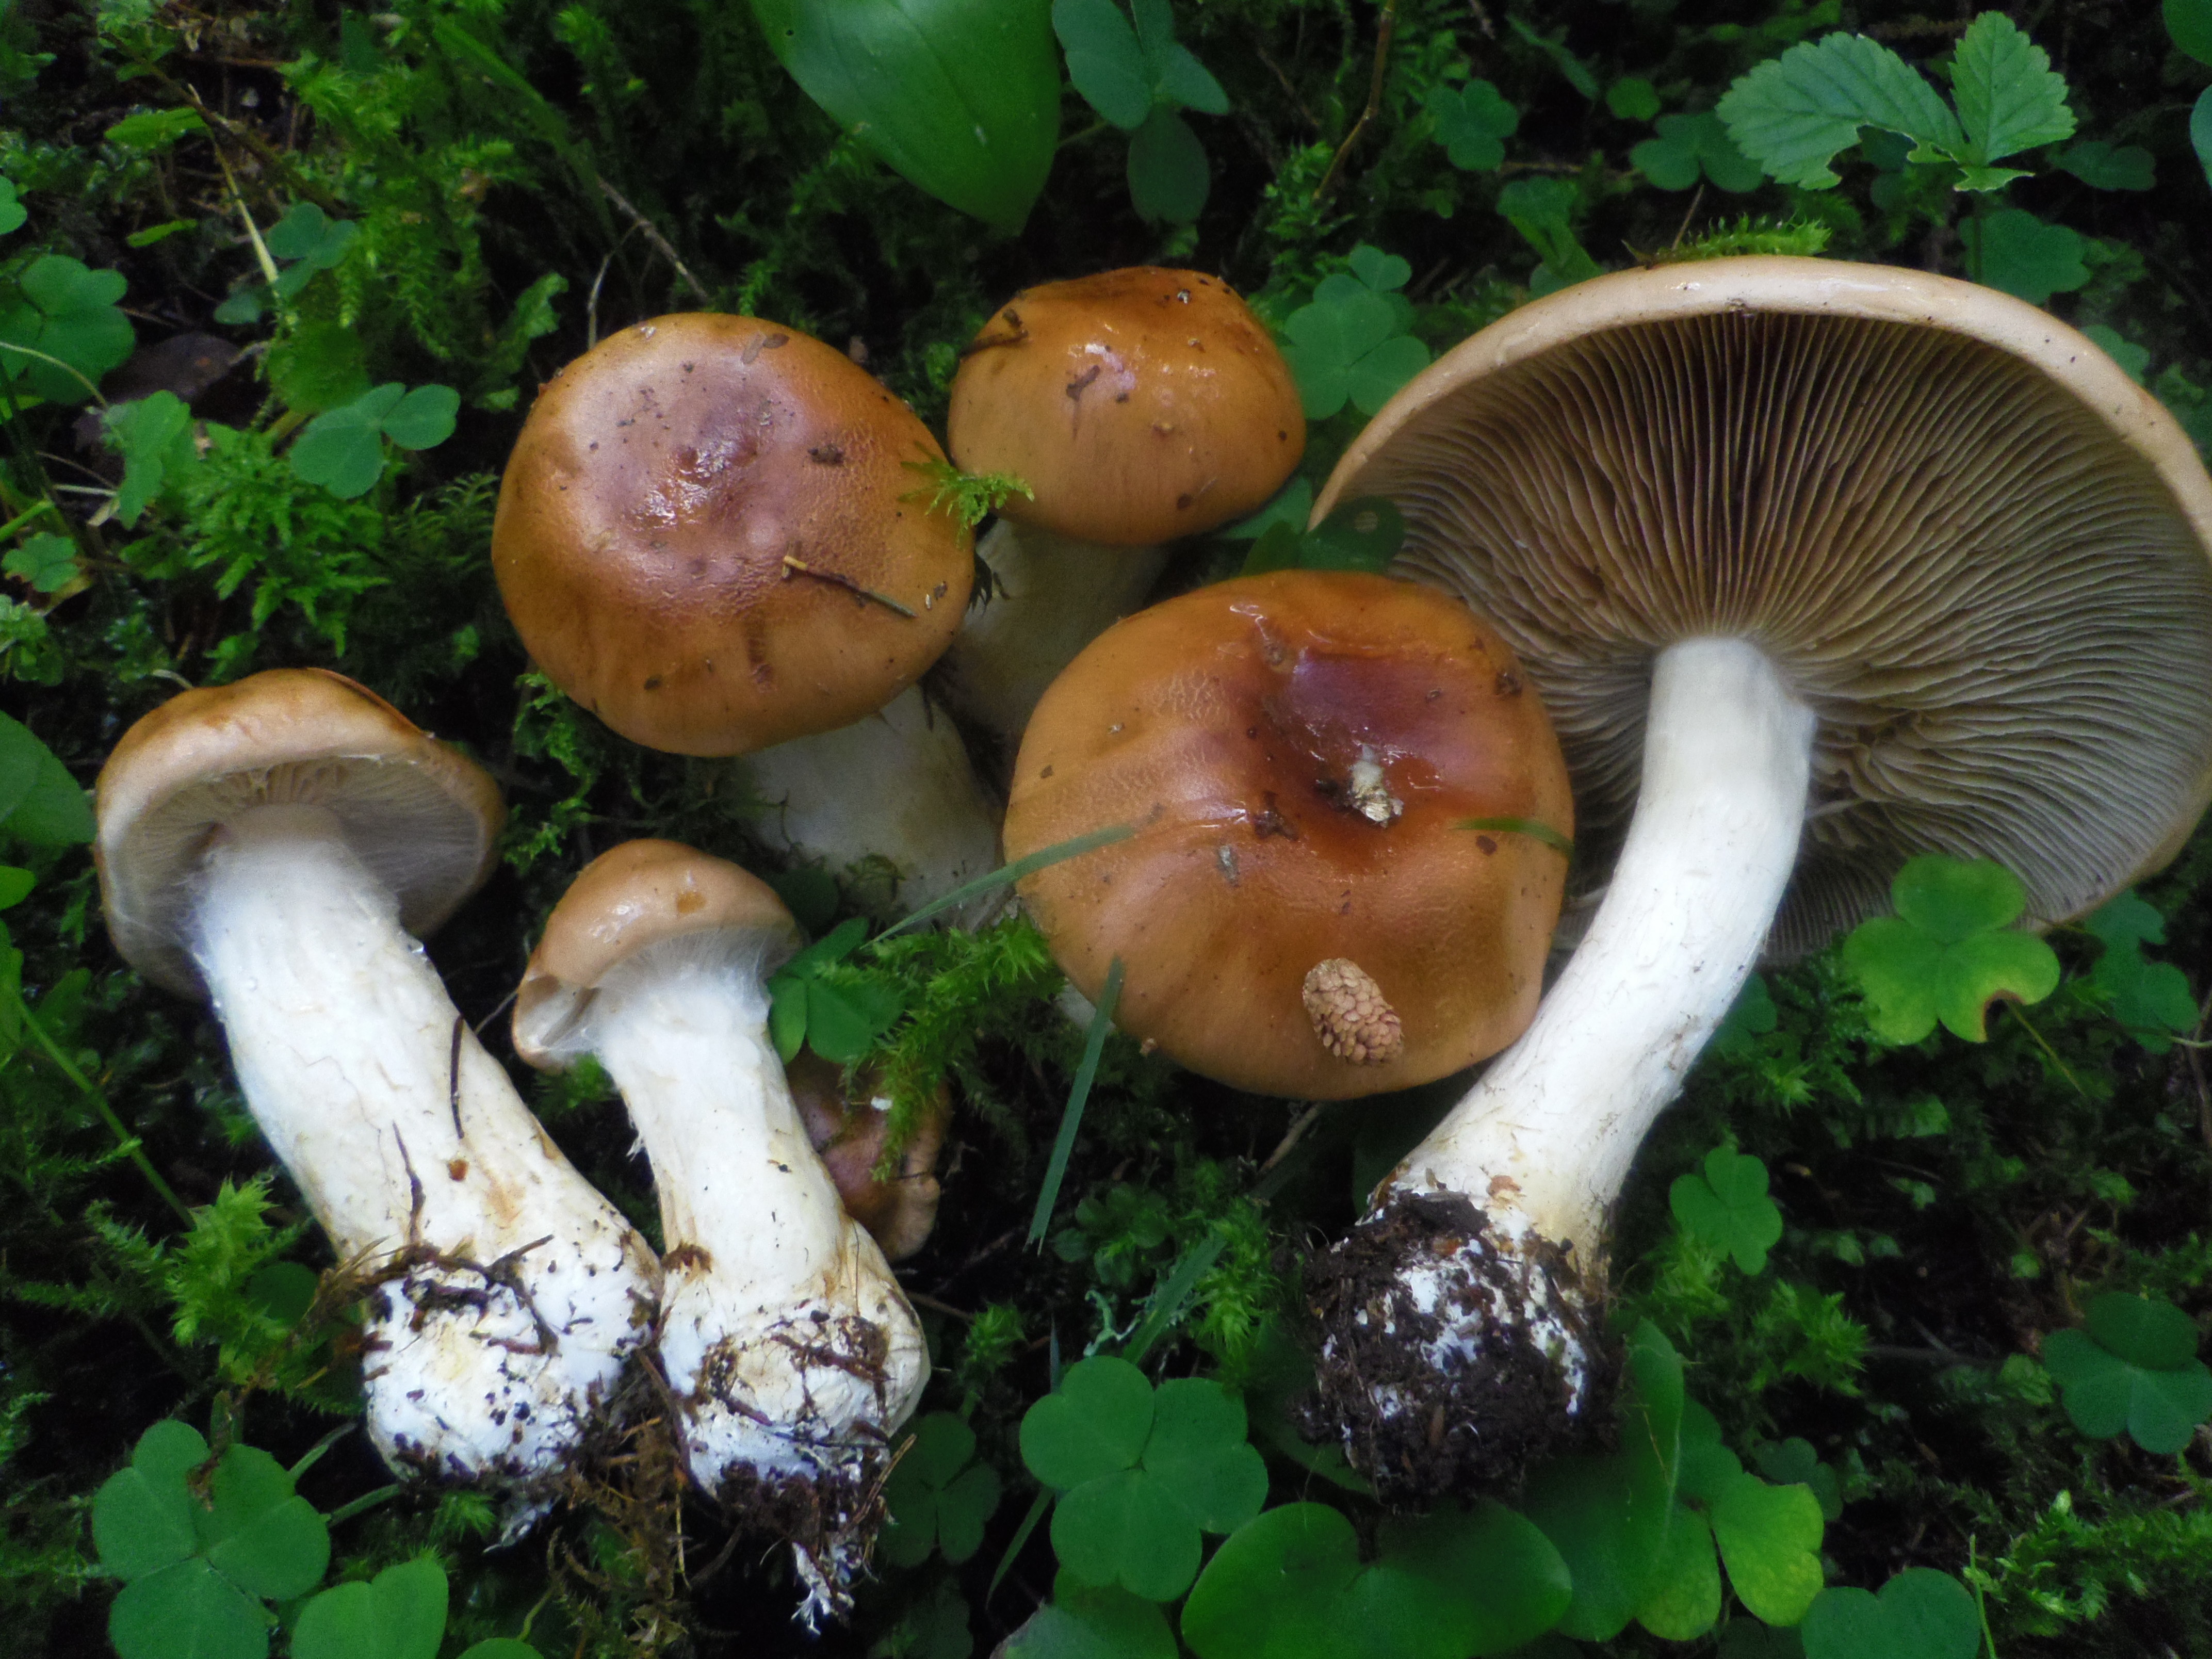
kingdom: Fungi
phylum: Basidiomycota
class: Agaricomycetes
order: Agaricales
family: Cortinariaceae
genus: Cortinarius
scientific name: Cortinarius
